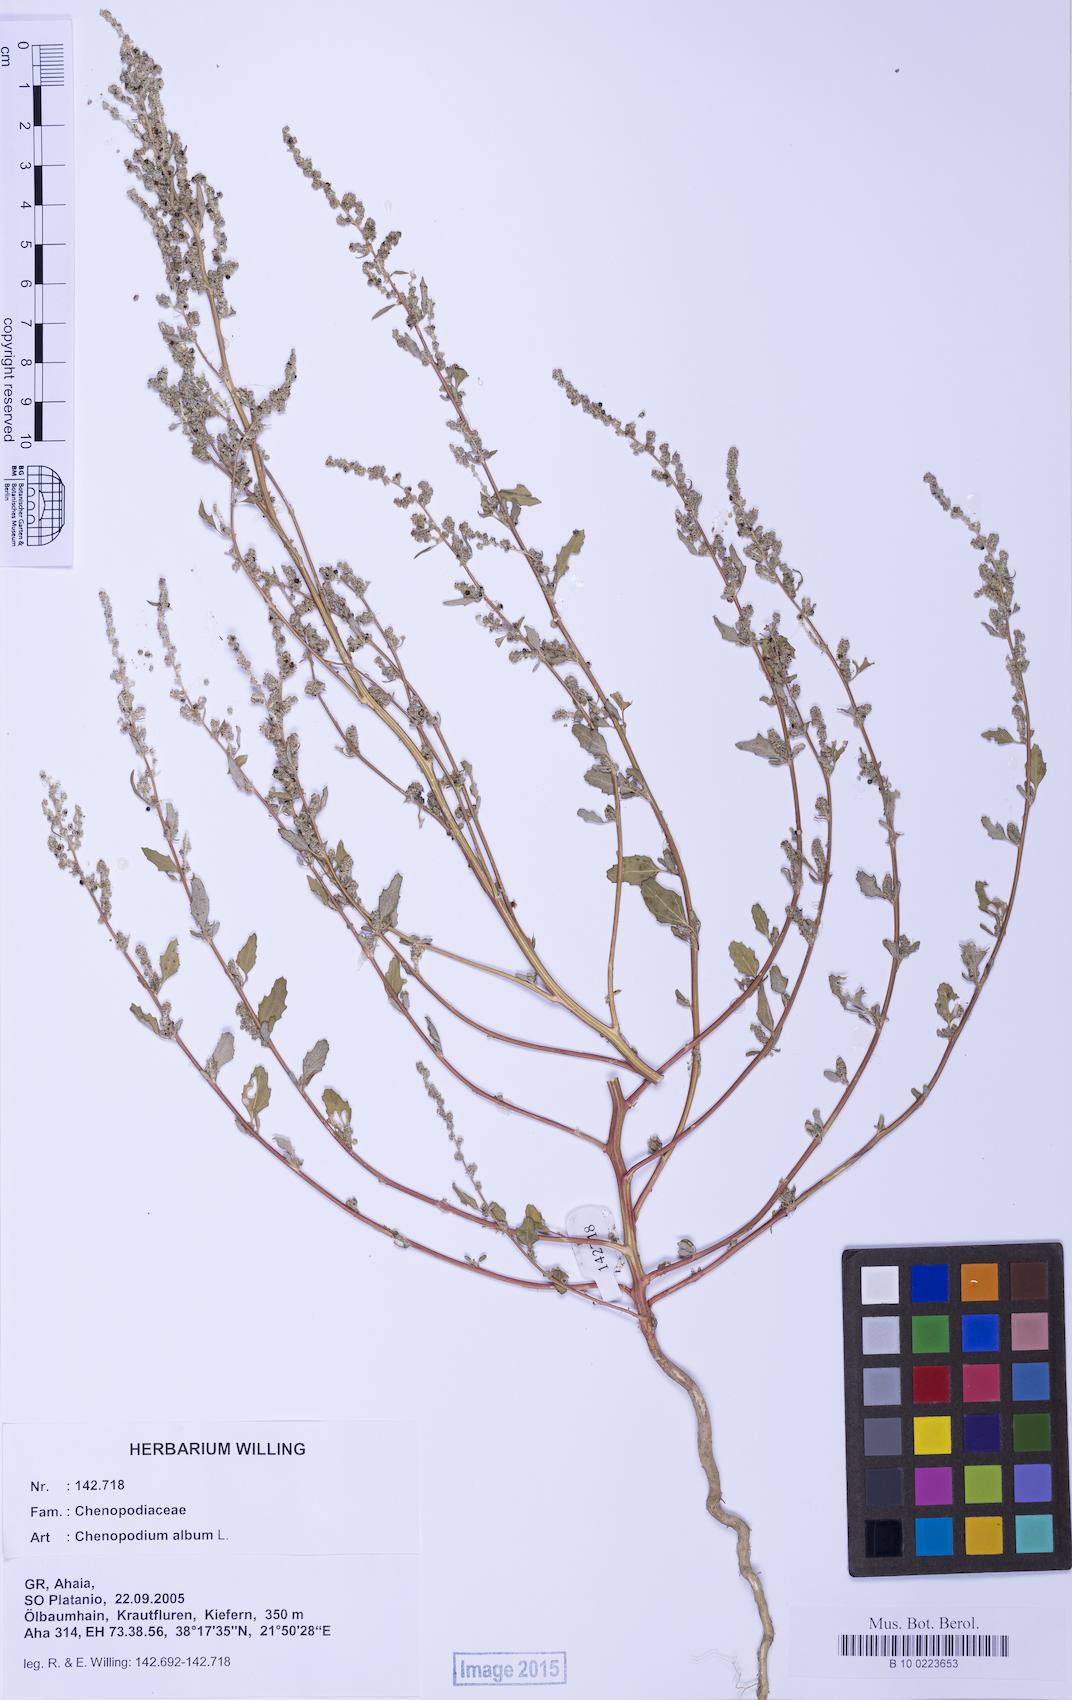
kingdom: Plantae
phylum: Tracheophyta
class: Magnoliopsida
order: Caryophyllales
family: Amaranthaceae
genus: Chenopodium
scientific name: Chenopodium album
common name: Fat-hen
